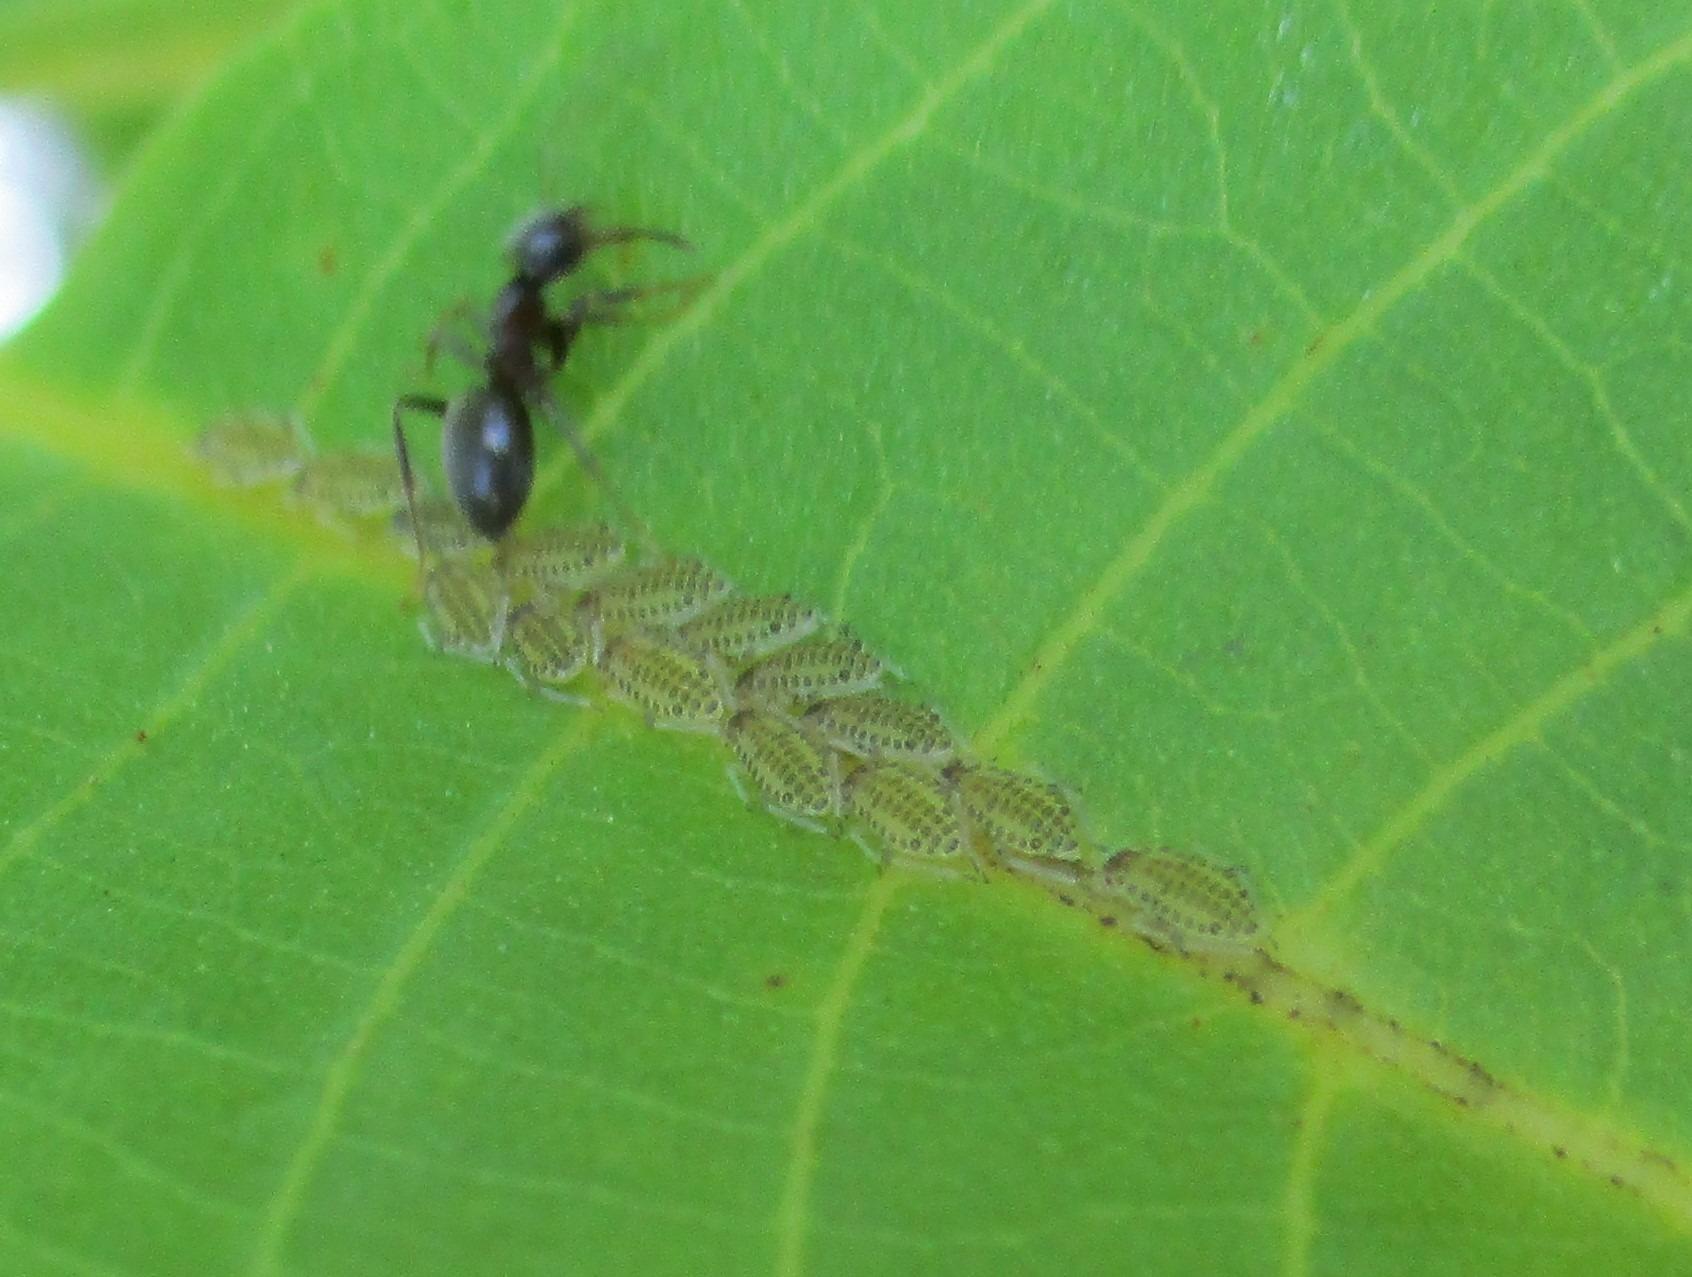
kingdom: Animalia
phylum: Arthropoda
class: Insecta
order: Hemiptera
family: Aphididae
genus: Panaphis
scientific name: Panaphis juglandis
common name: Stor valnødbladlus
